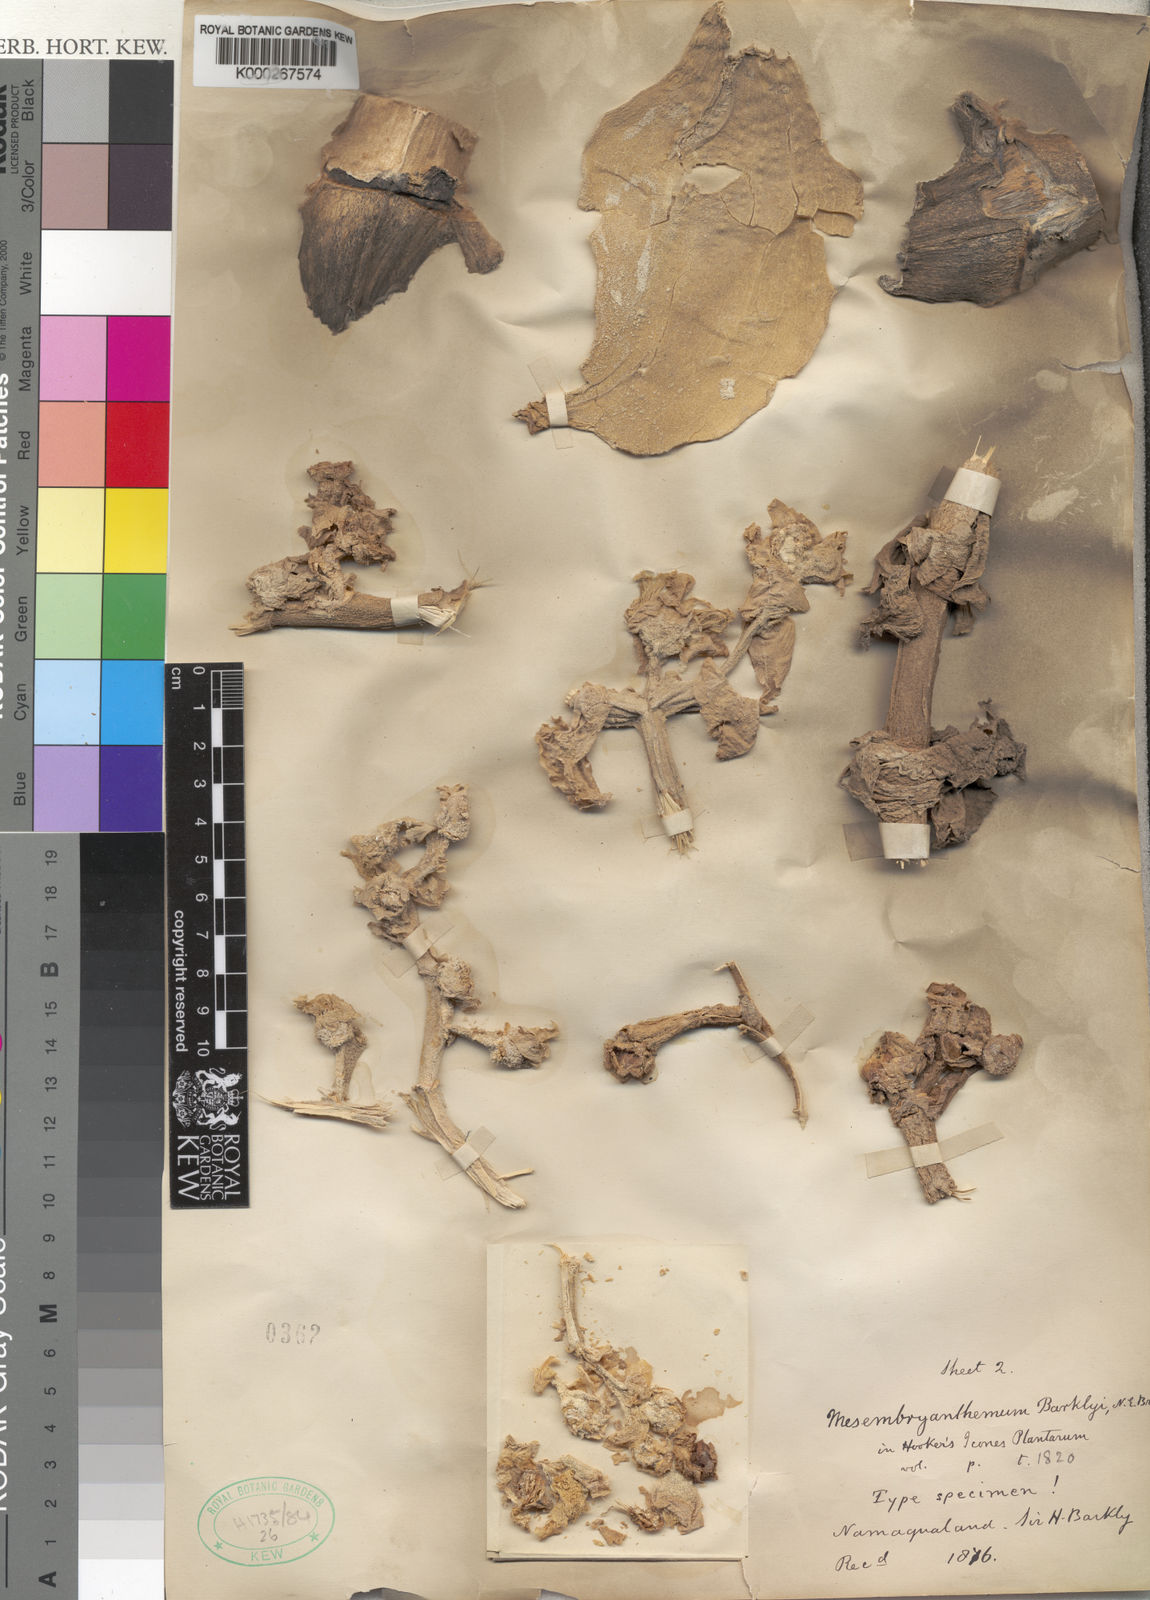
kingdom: Plantae
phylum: Tracheophyta
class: Magnoliopsida
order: Caryophyllales
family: Aizoaceae
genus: Mesembryanthemum
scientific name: Mesembryanthemum barklyi
